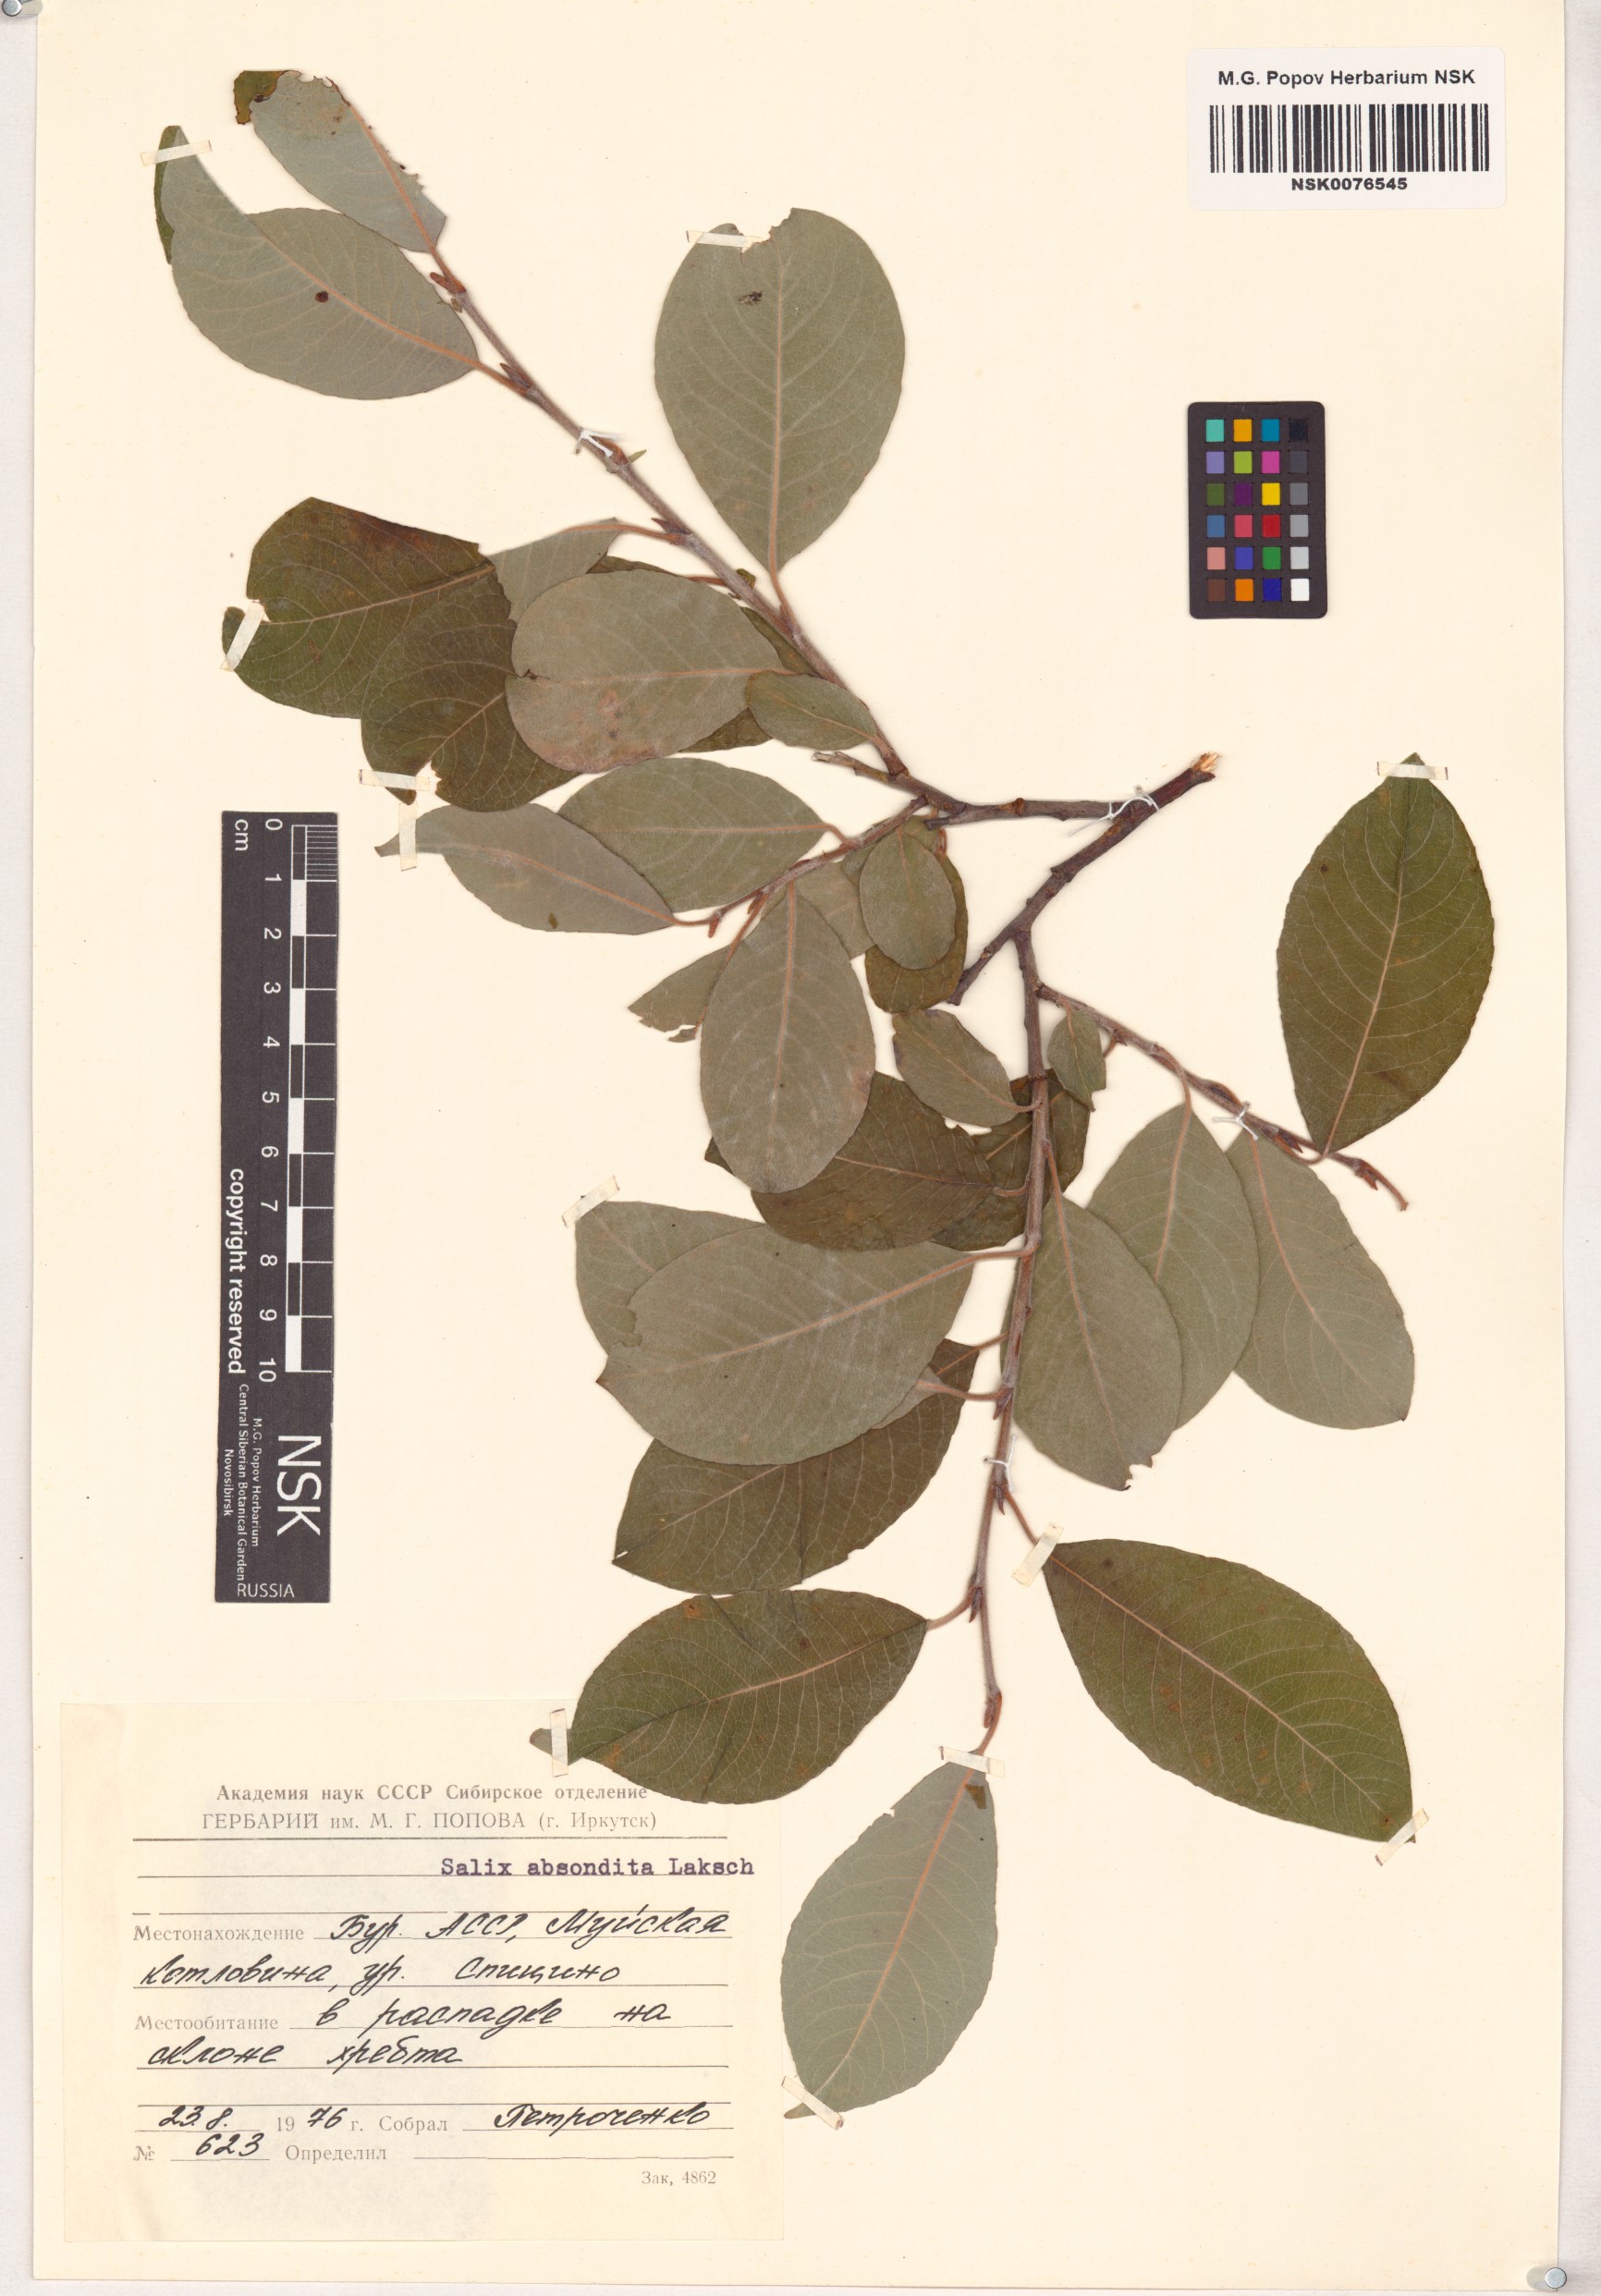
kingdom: Plantae
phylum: Tracheophyta
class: Magnoliopsida
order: Malpighiales
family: Salicaceae
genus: Salix
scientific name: Salix abscondita
